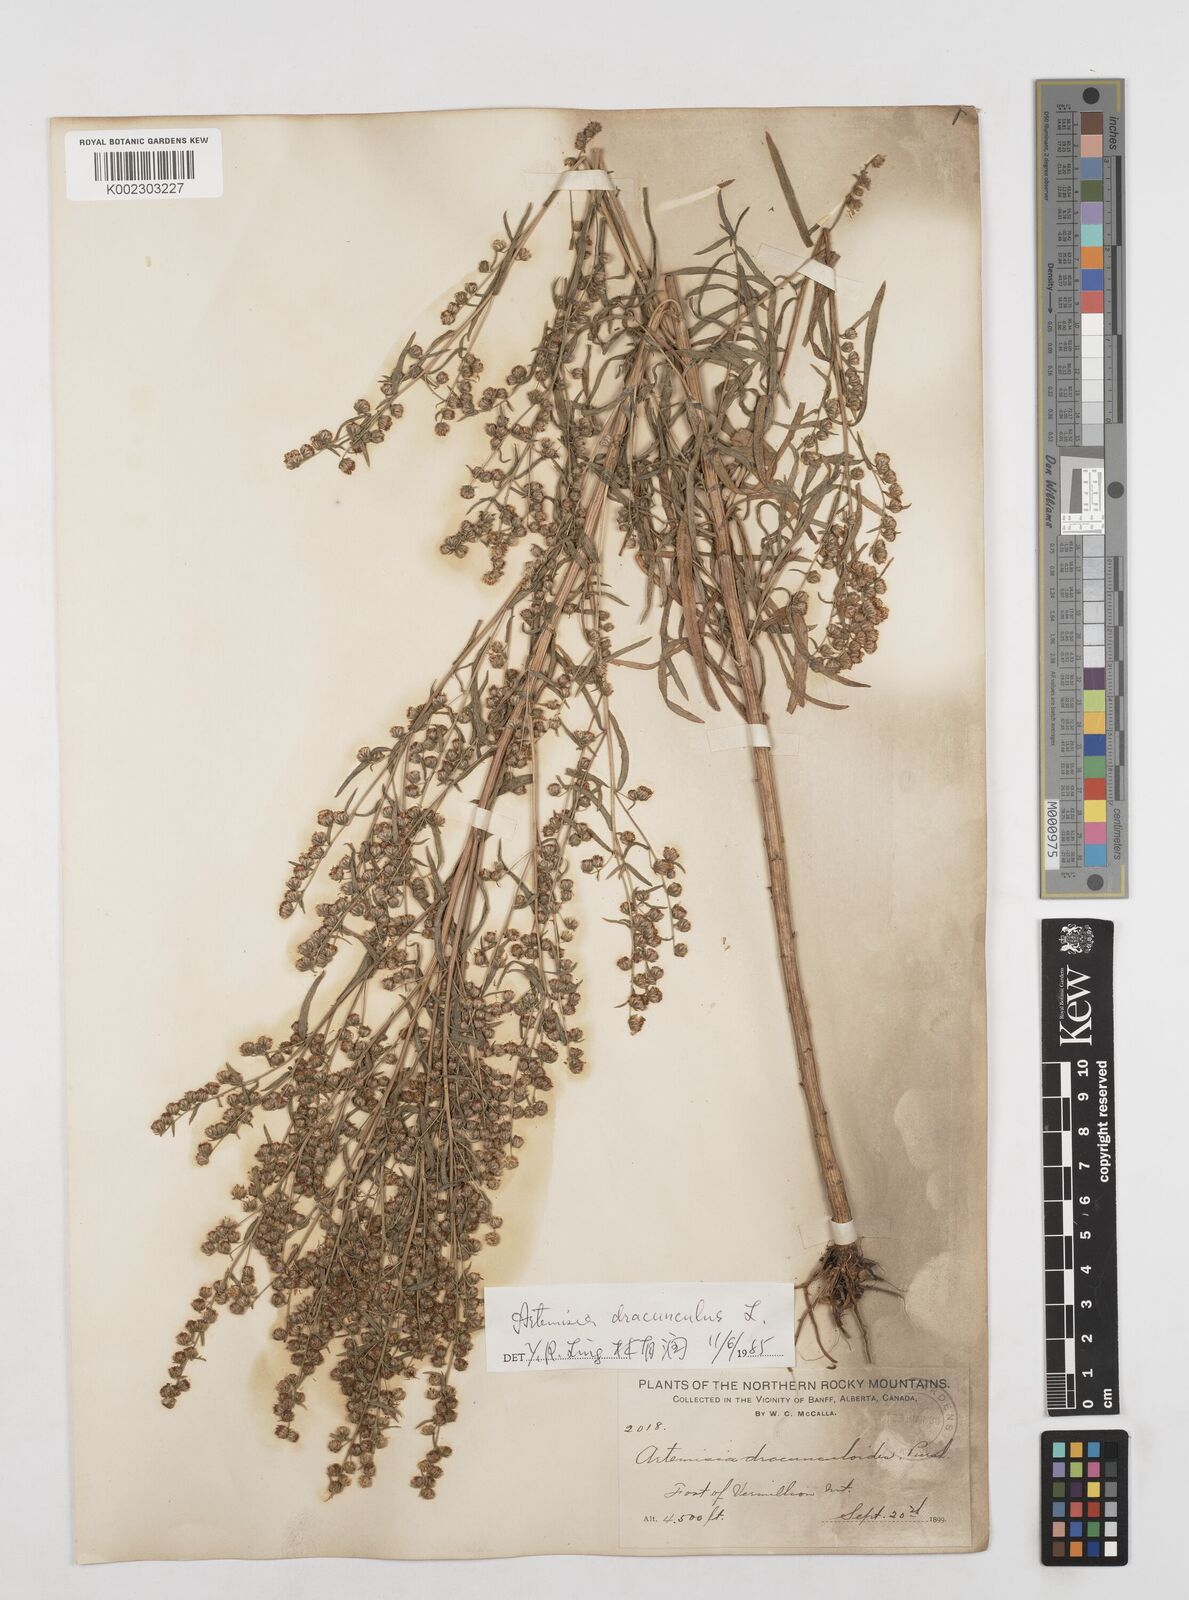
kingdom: Plantae
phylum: Tracheophyta
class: Magnoliopsida
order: Asterales
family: Asteraceae
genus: Artemisia
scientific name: Artemisia dracunculus
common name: Tarragon
